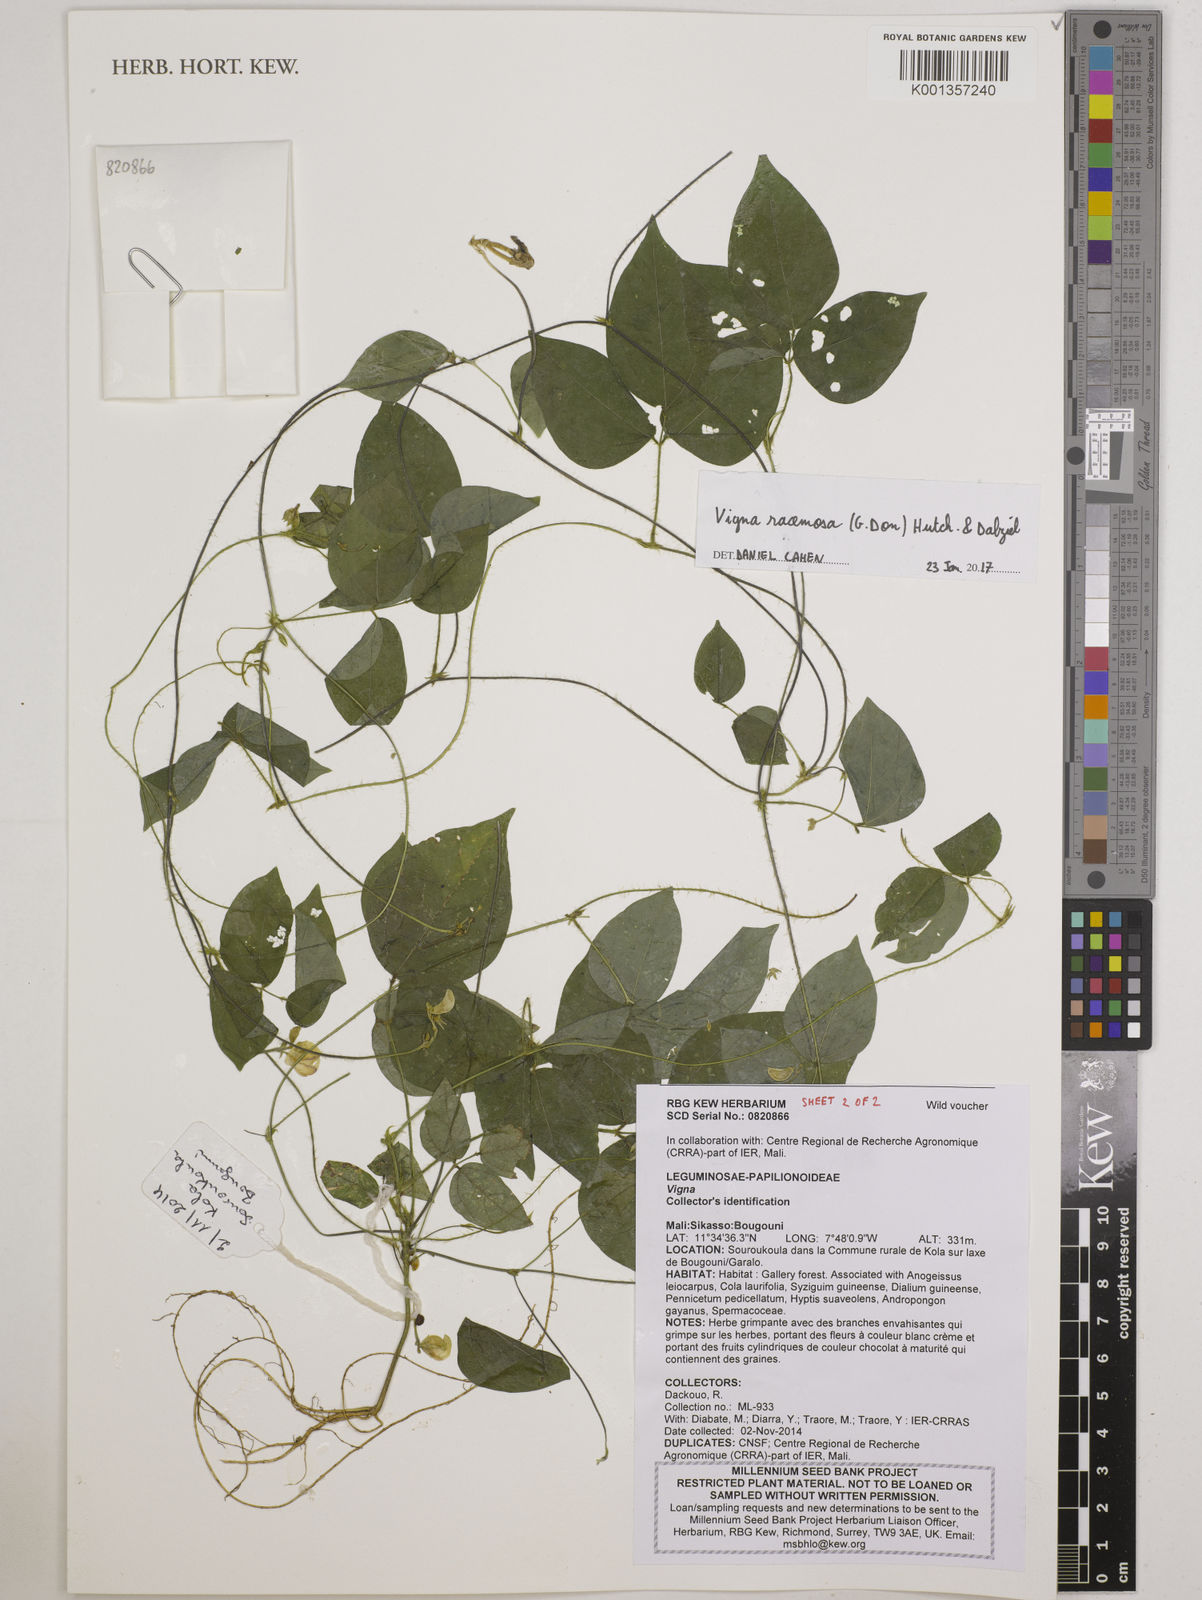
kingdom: Plantae
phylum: Tracheophyta
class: Magnoliopsida
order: Fabales
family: Fabaceae
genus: Vigna
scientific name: Vigna racemosa
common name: Beans not eaten
